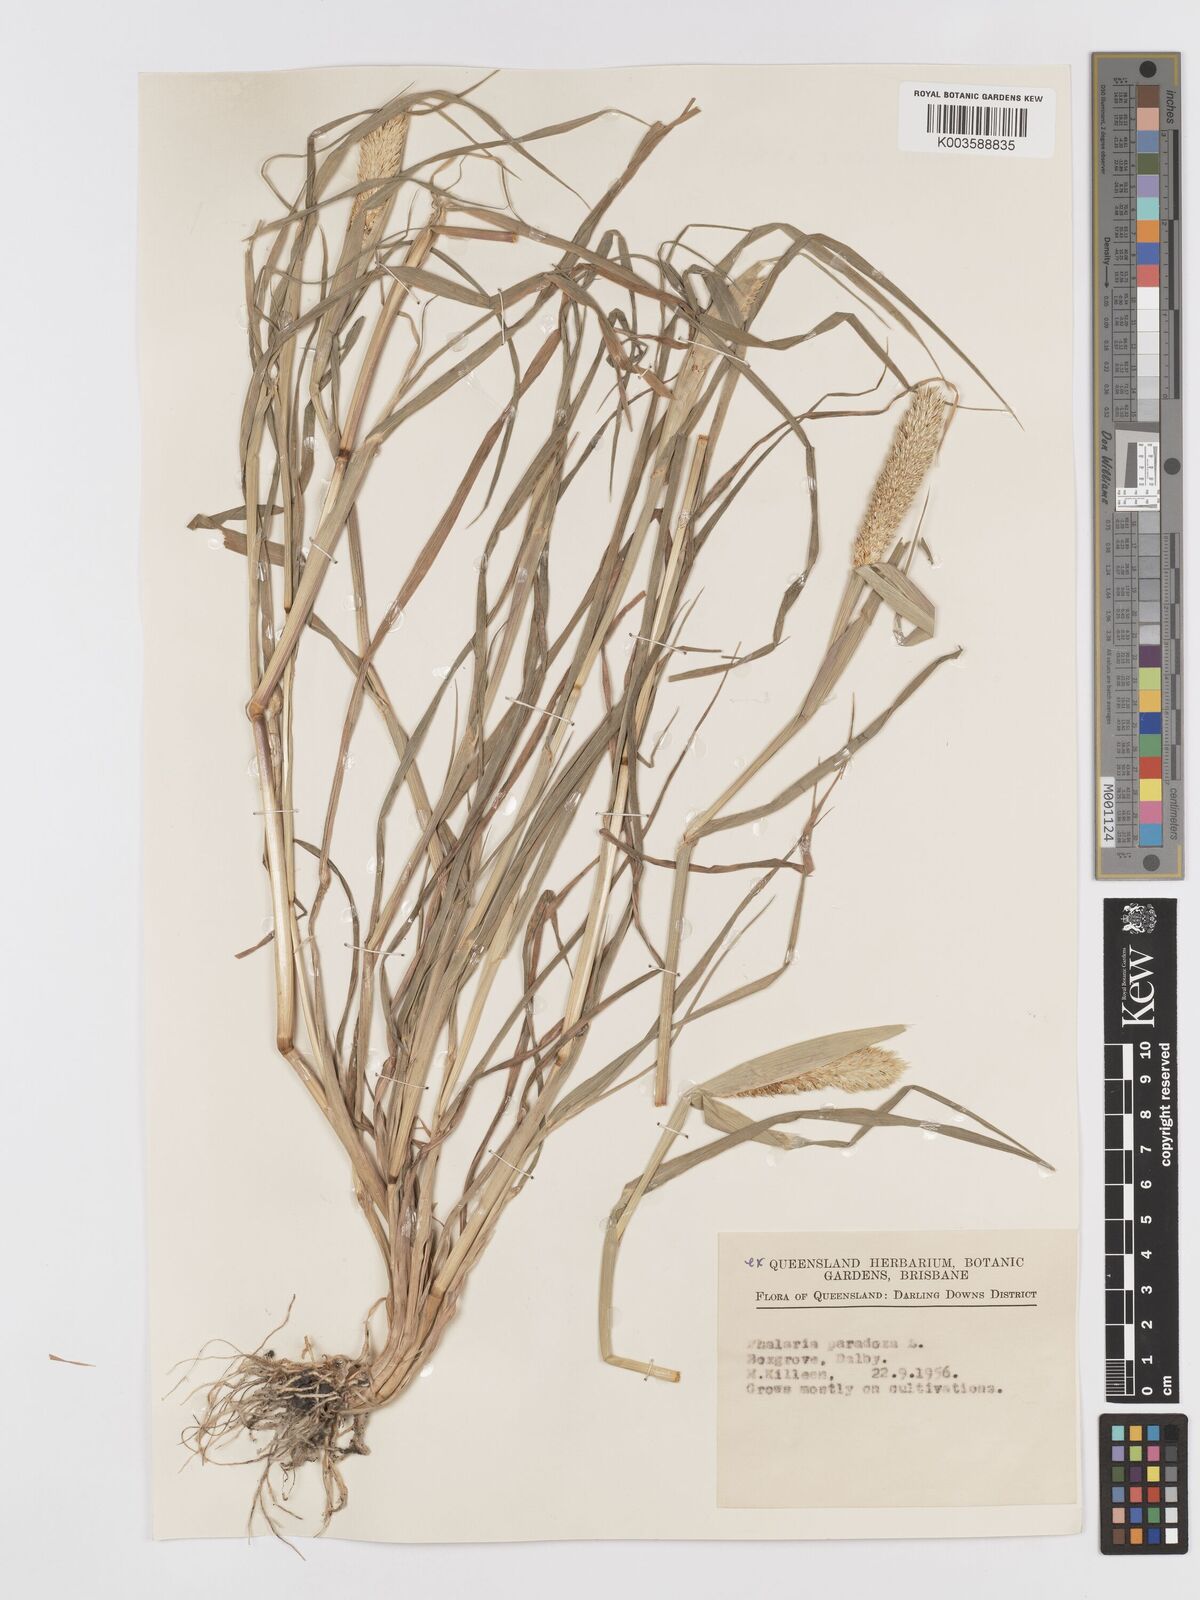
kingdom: Plantae
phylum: Tracheophyta
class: Liliopsida
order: Poales
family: Poaceae
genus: Phalaris
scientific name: Phalaris paradoxa
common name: Awned canary-grass
